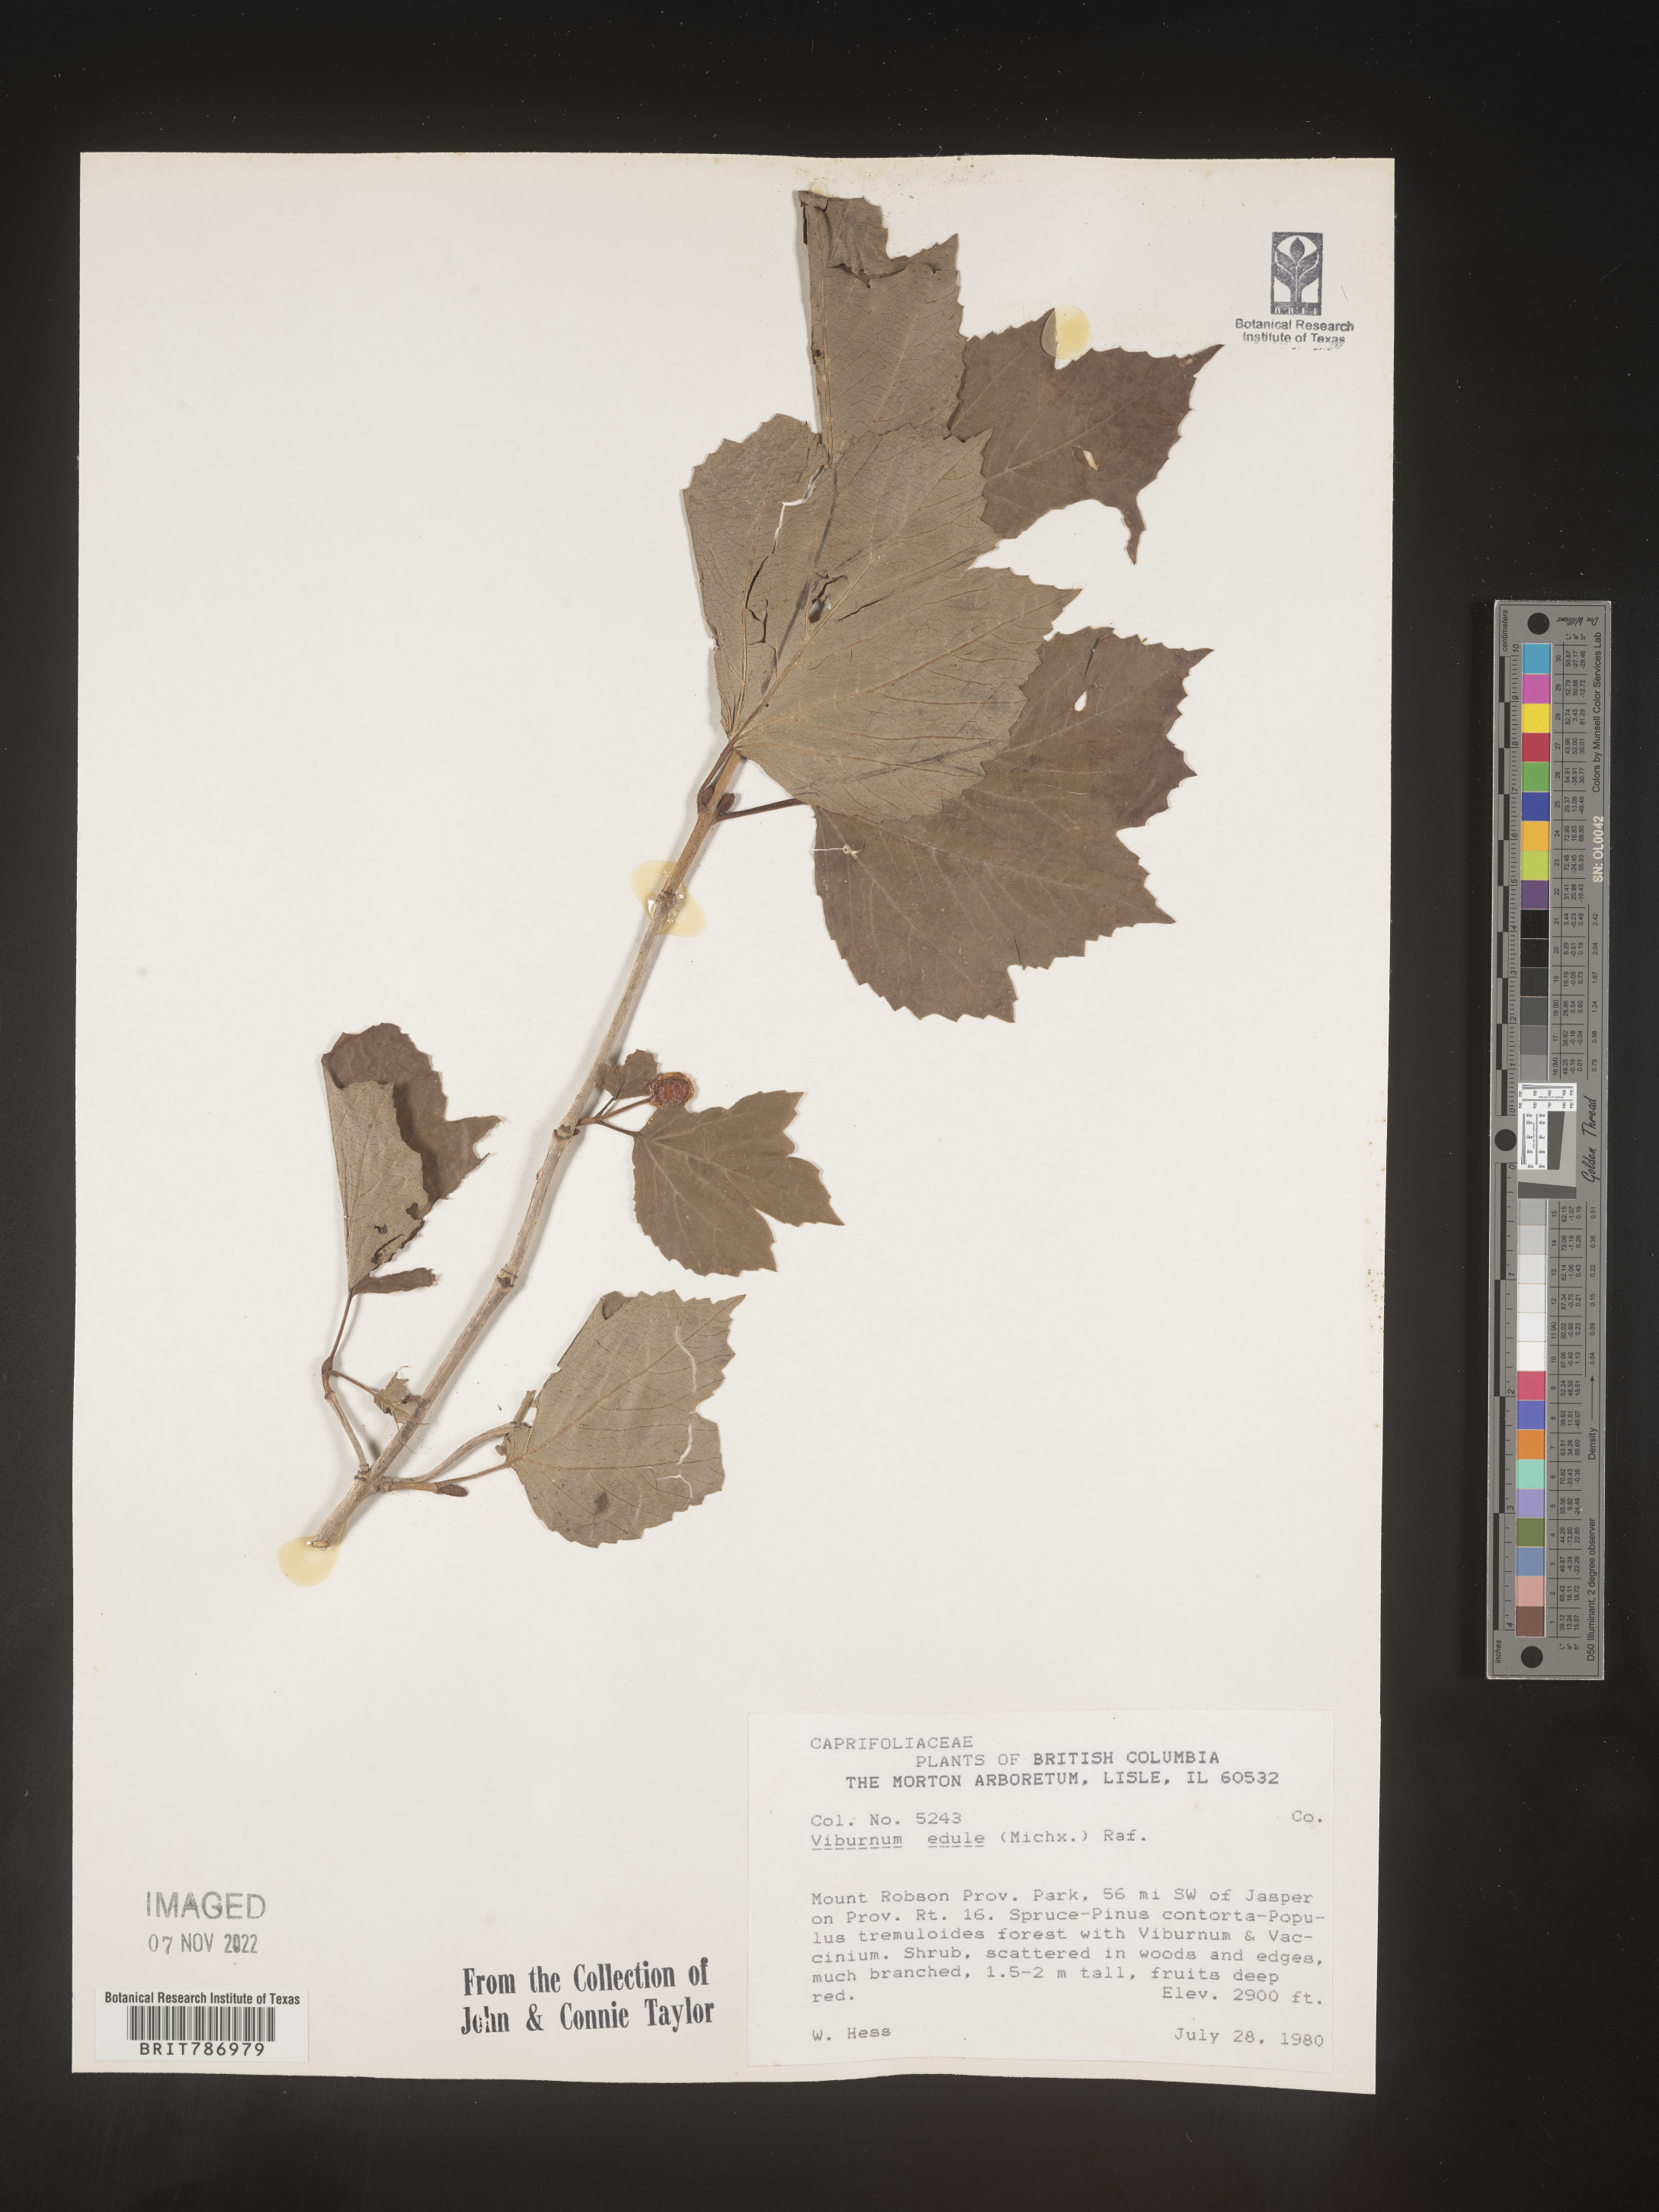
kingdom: Plantae
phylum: Tracheophyta
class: Magnoliopsida
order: Dipsacales
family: Viburnaceae
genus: Viburnum
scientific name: Viburnum edule
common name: Mooseberry
